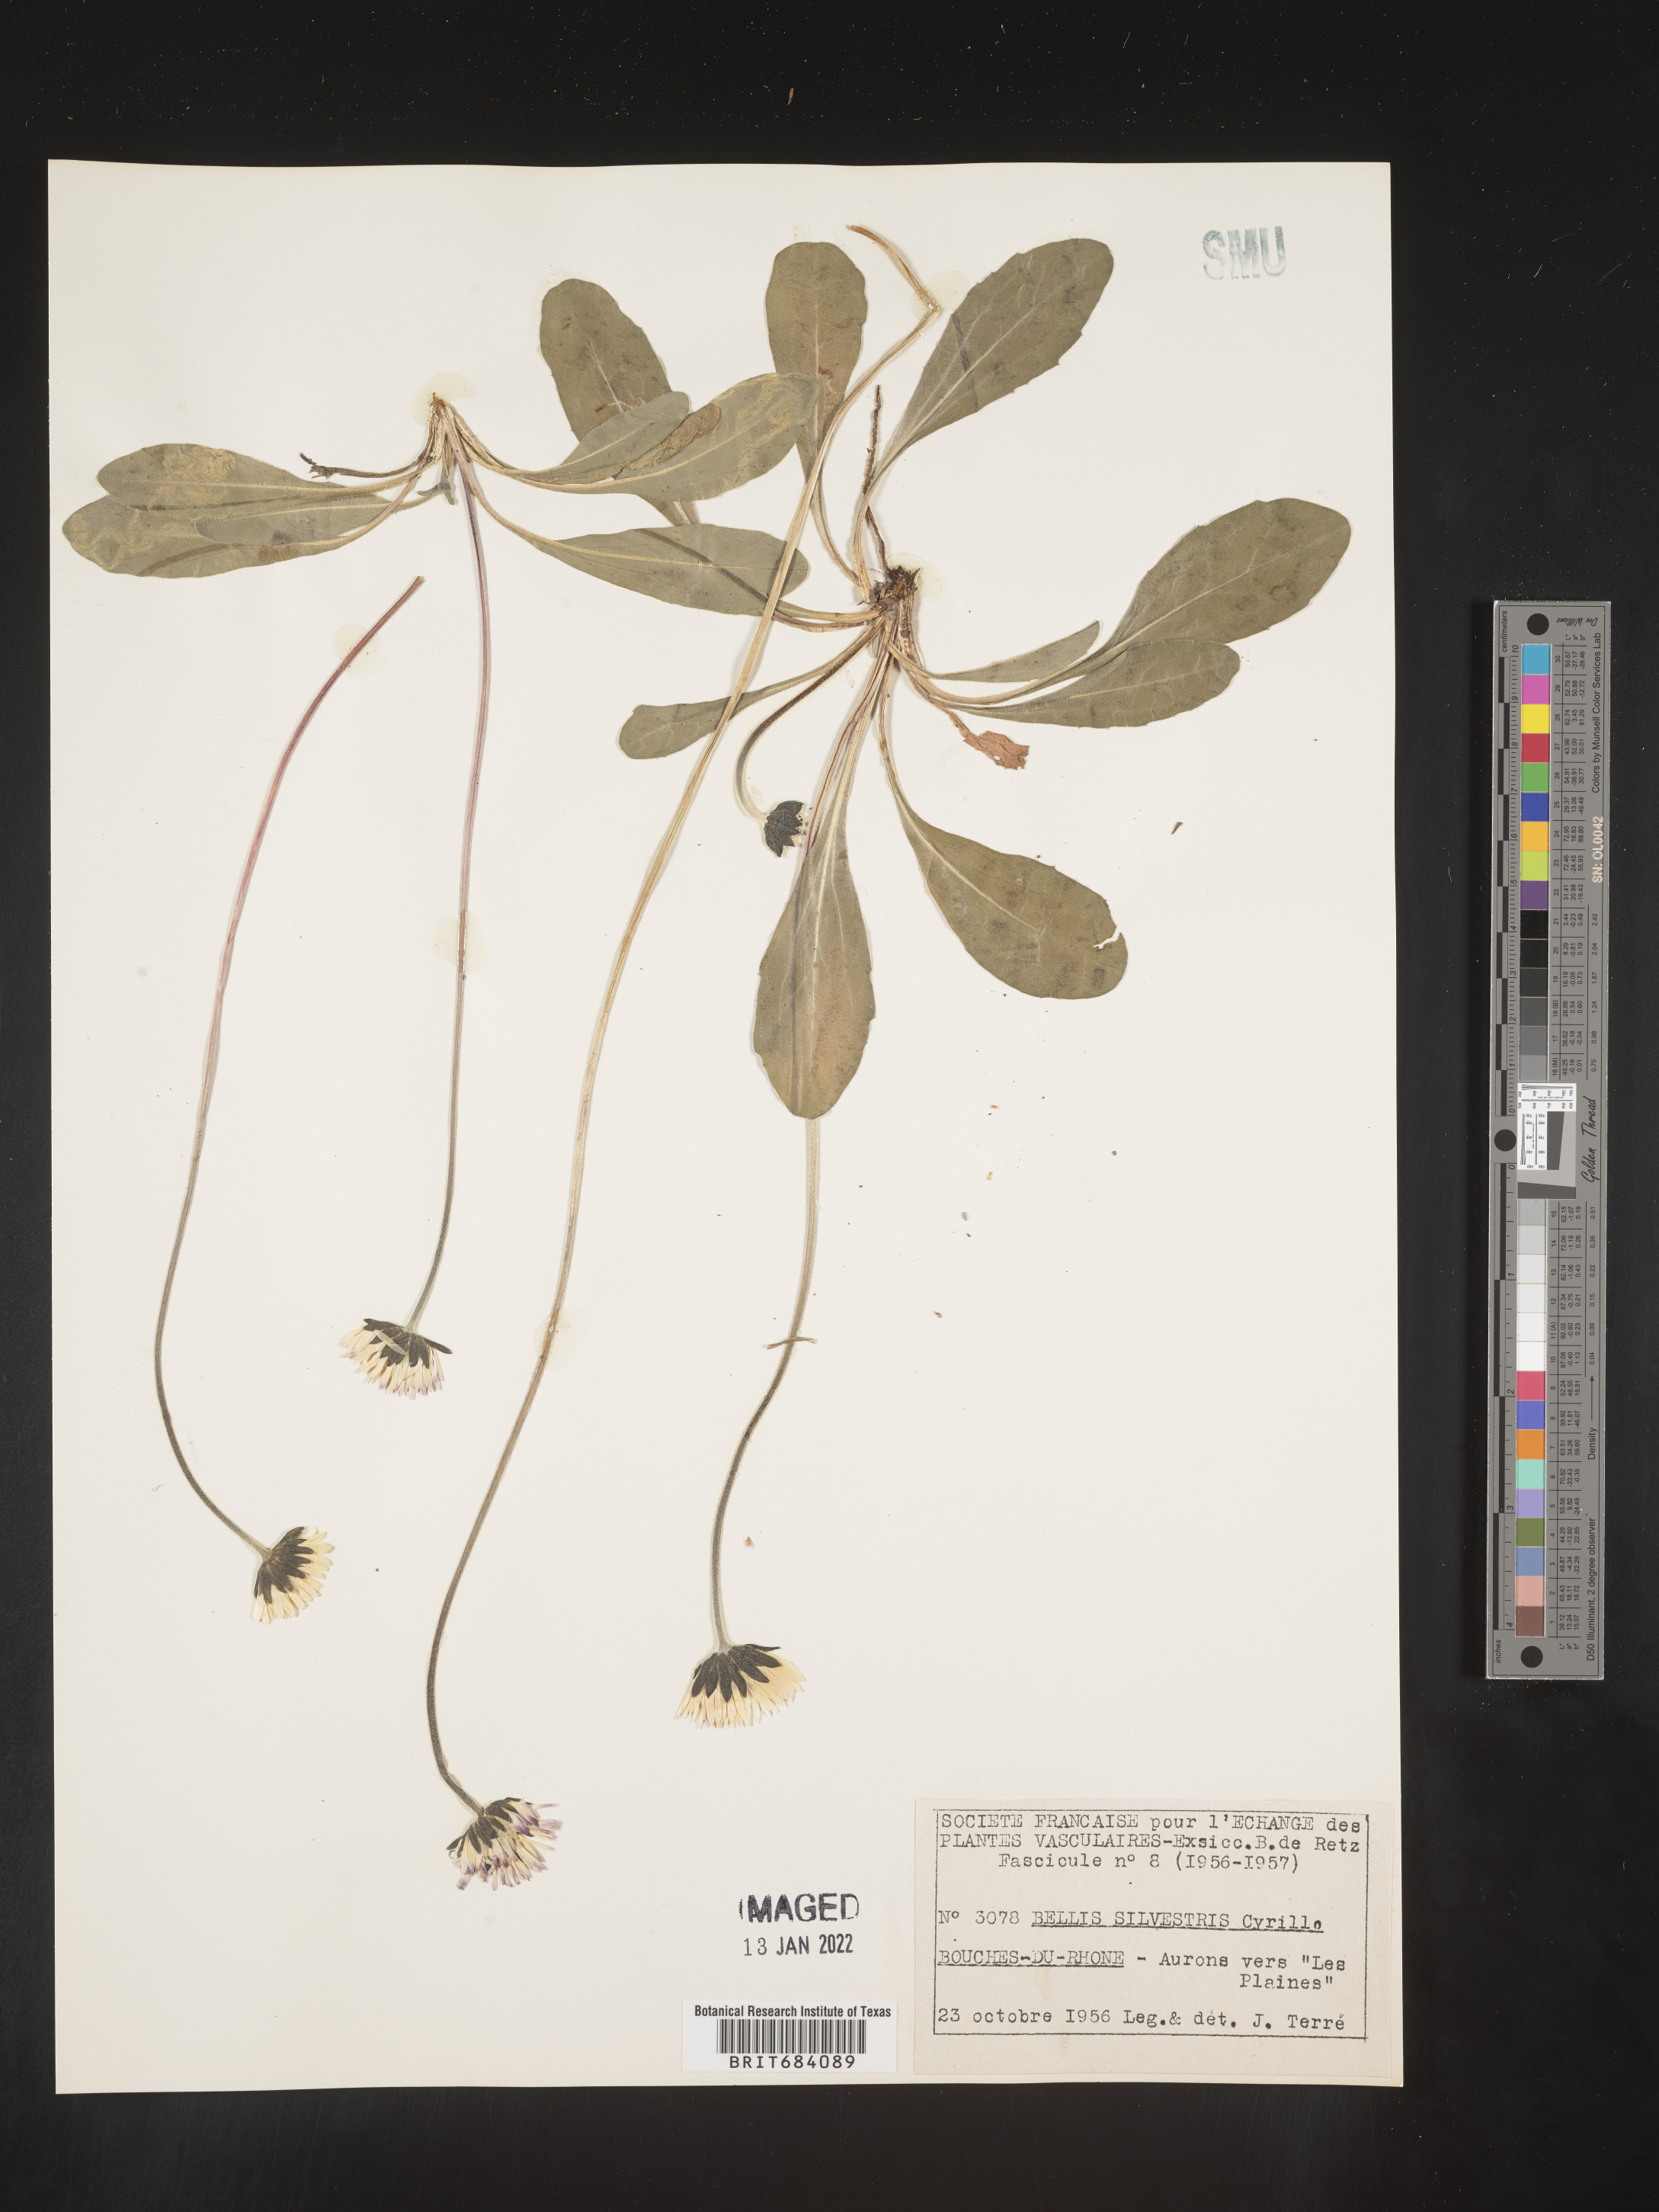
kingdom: Plantae
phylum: Tracheophyta
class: Magnoliopsida
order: Asterales
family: Asteraceae
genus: Bellis
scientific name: Bellis
